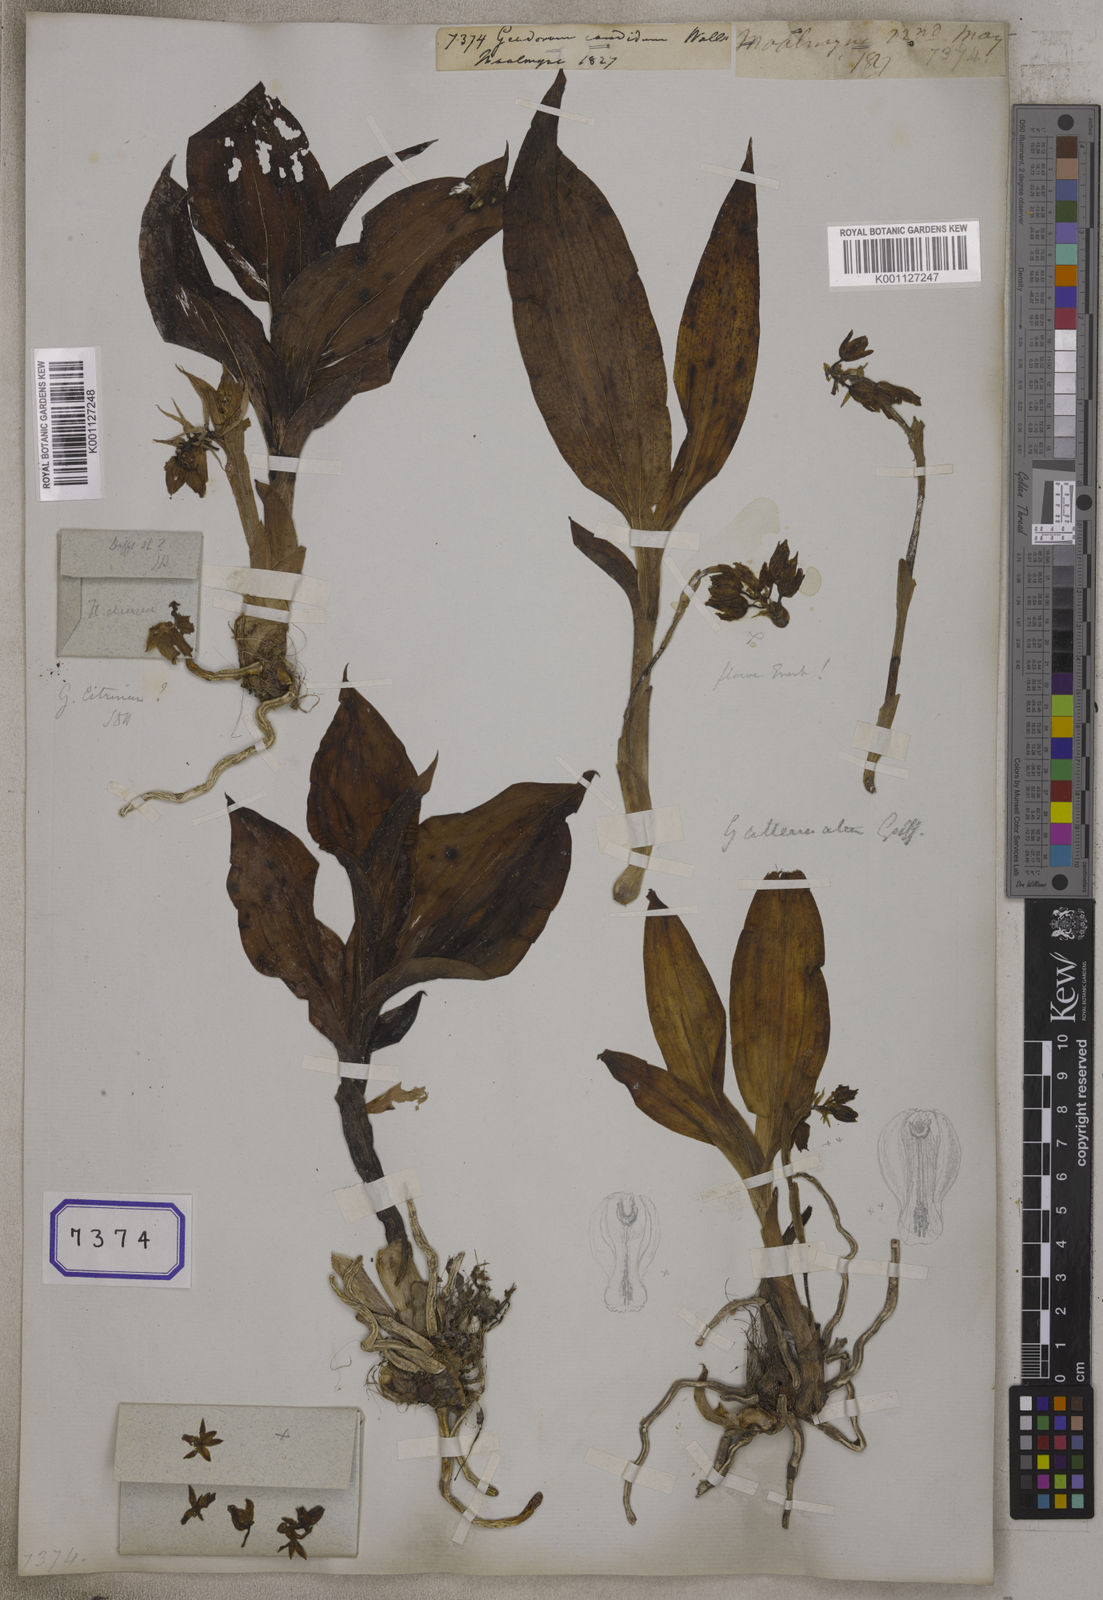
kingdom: Plantae
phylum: Tracheophyta
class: Liliopsida
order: Asparagales
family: Orchidaceae
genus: Geodorum
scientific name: Geodorum
